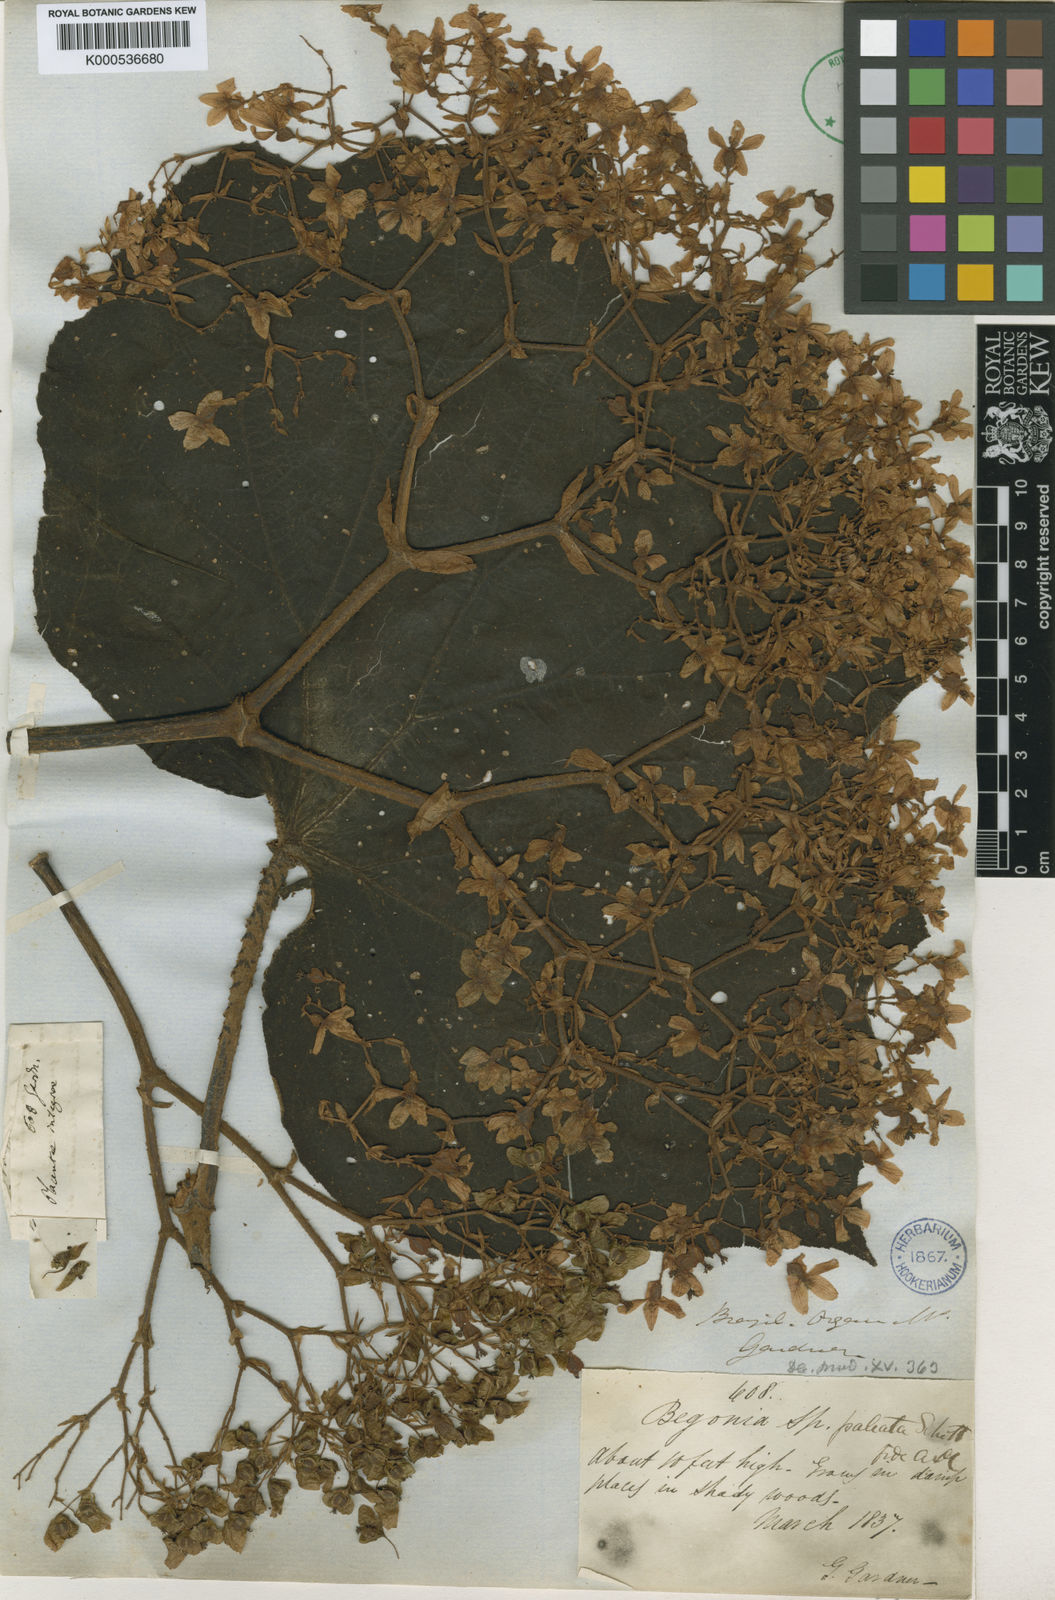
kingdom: Plantae
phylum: Tracheophyta
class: Magnoliopsida
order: Cucurbitales
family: Begoniaceae
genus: Begonia
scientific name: Begonia paleata
